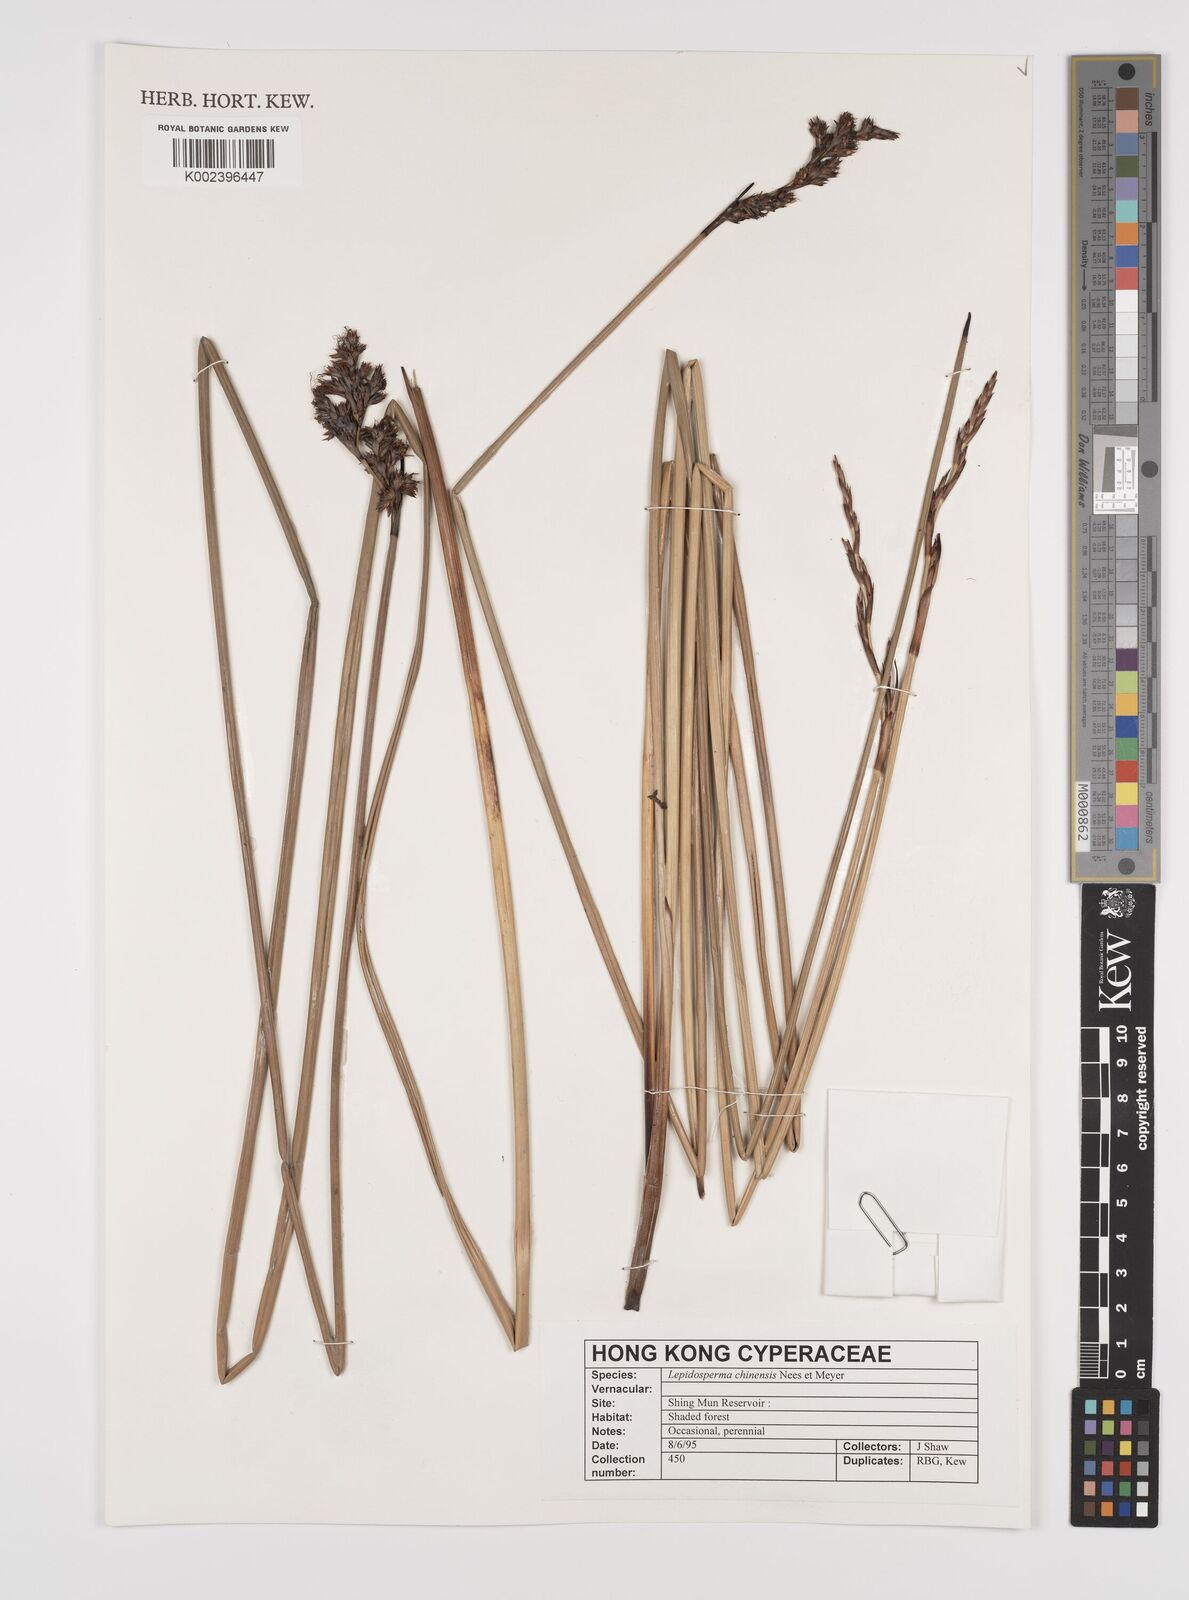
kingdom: Plantae
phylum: Tracheophyta
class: Liliopsida
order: Poales
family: Cyperaceae
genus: Lepidosperma
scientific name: Lepidosperma chinense
